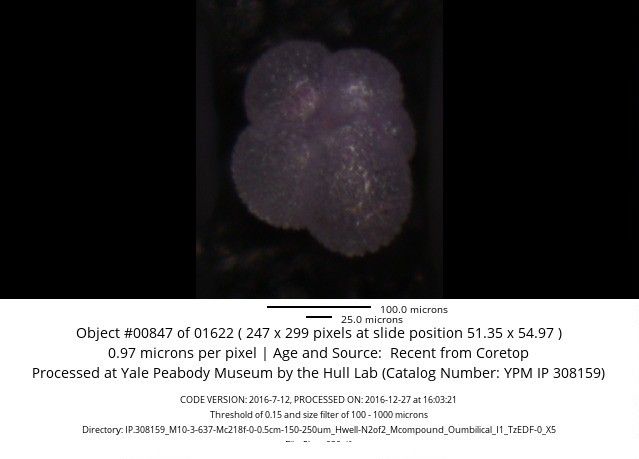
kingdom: Chromista
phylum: Foraminifera
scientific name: Foraminifera
